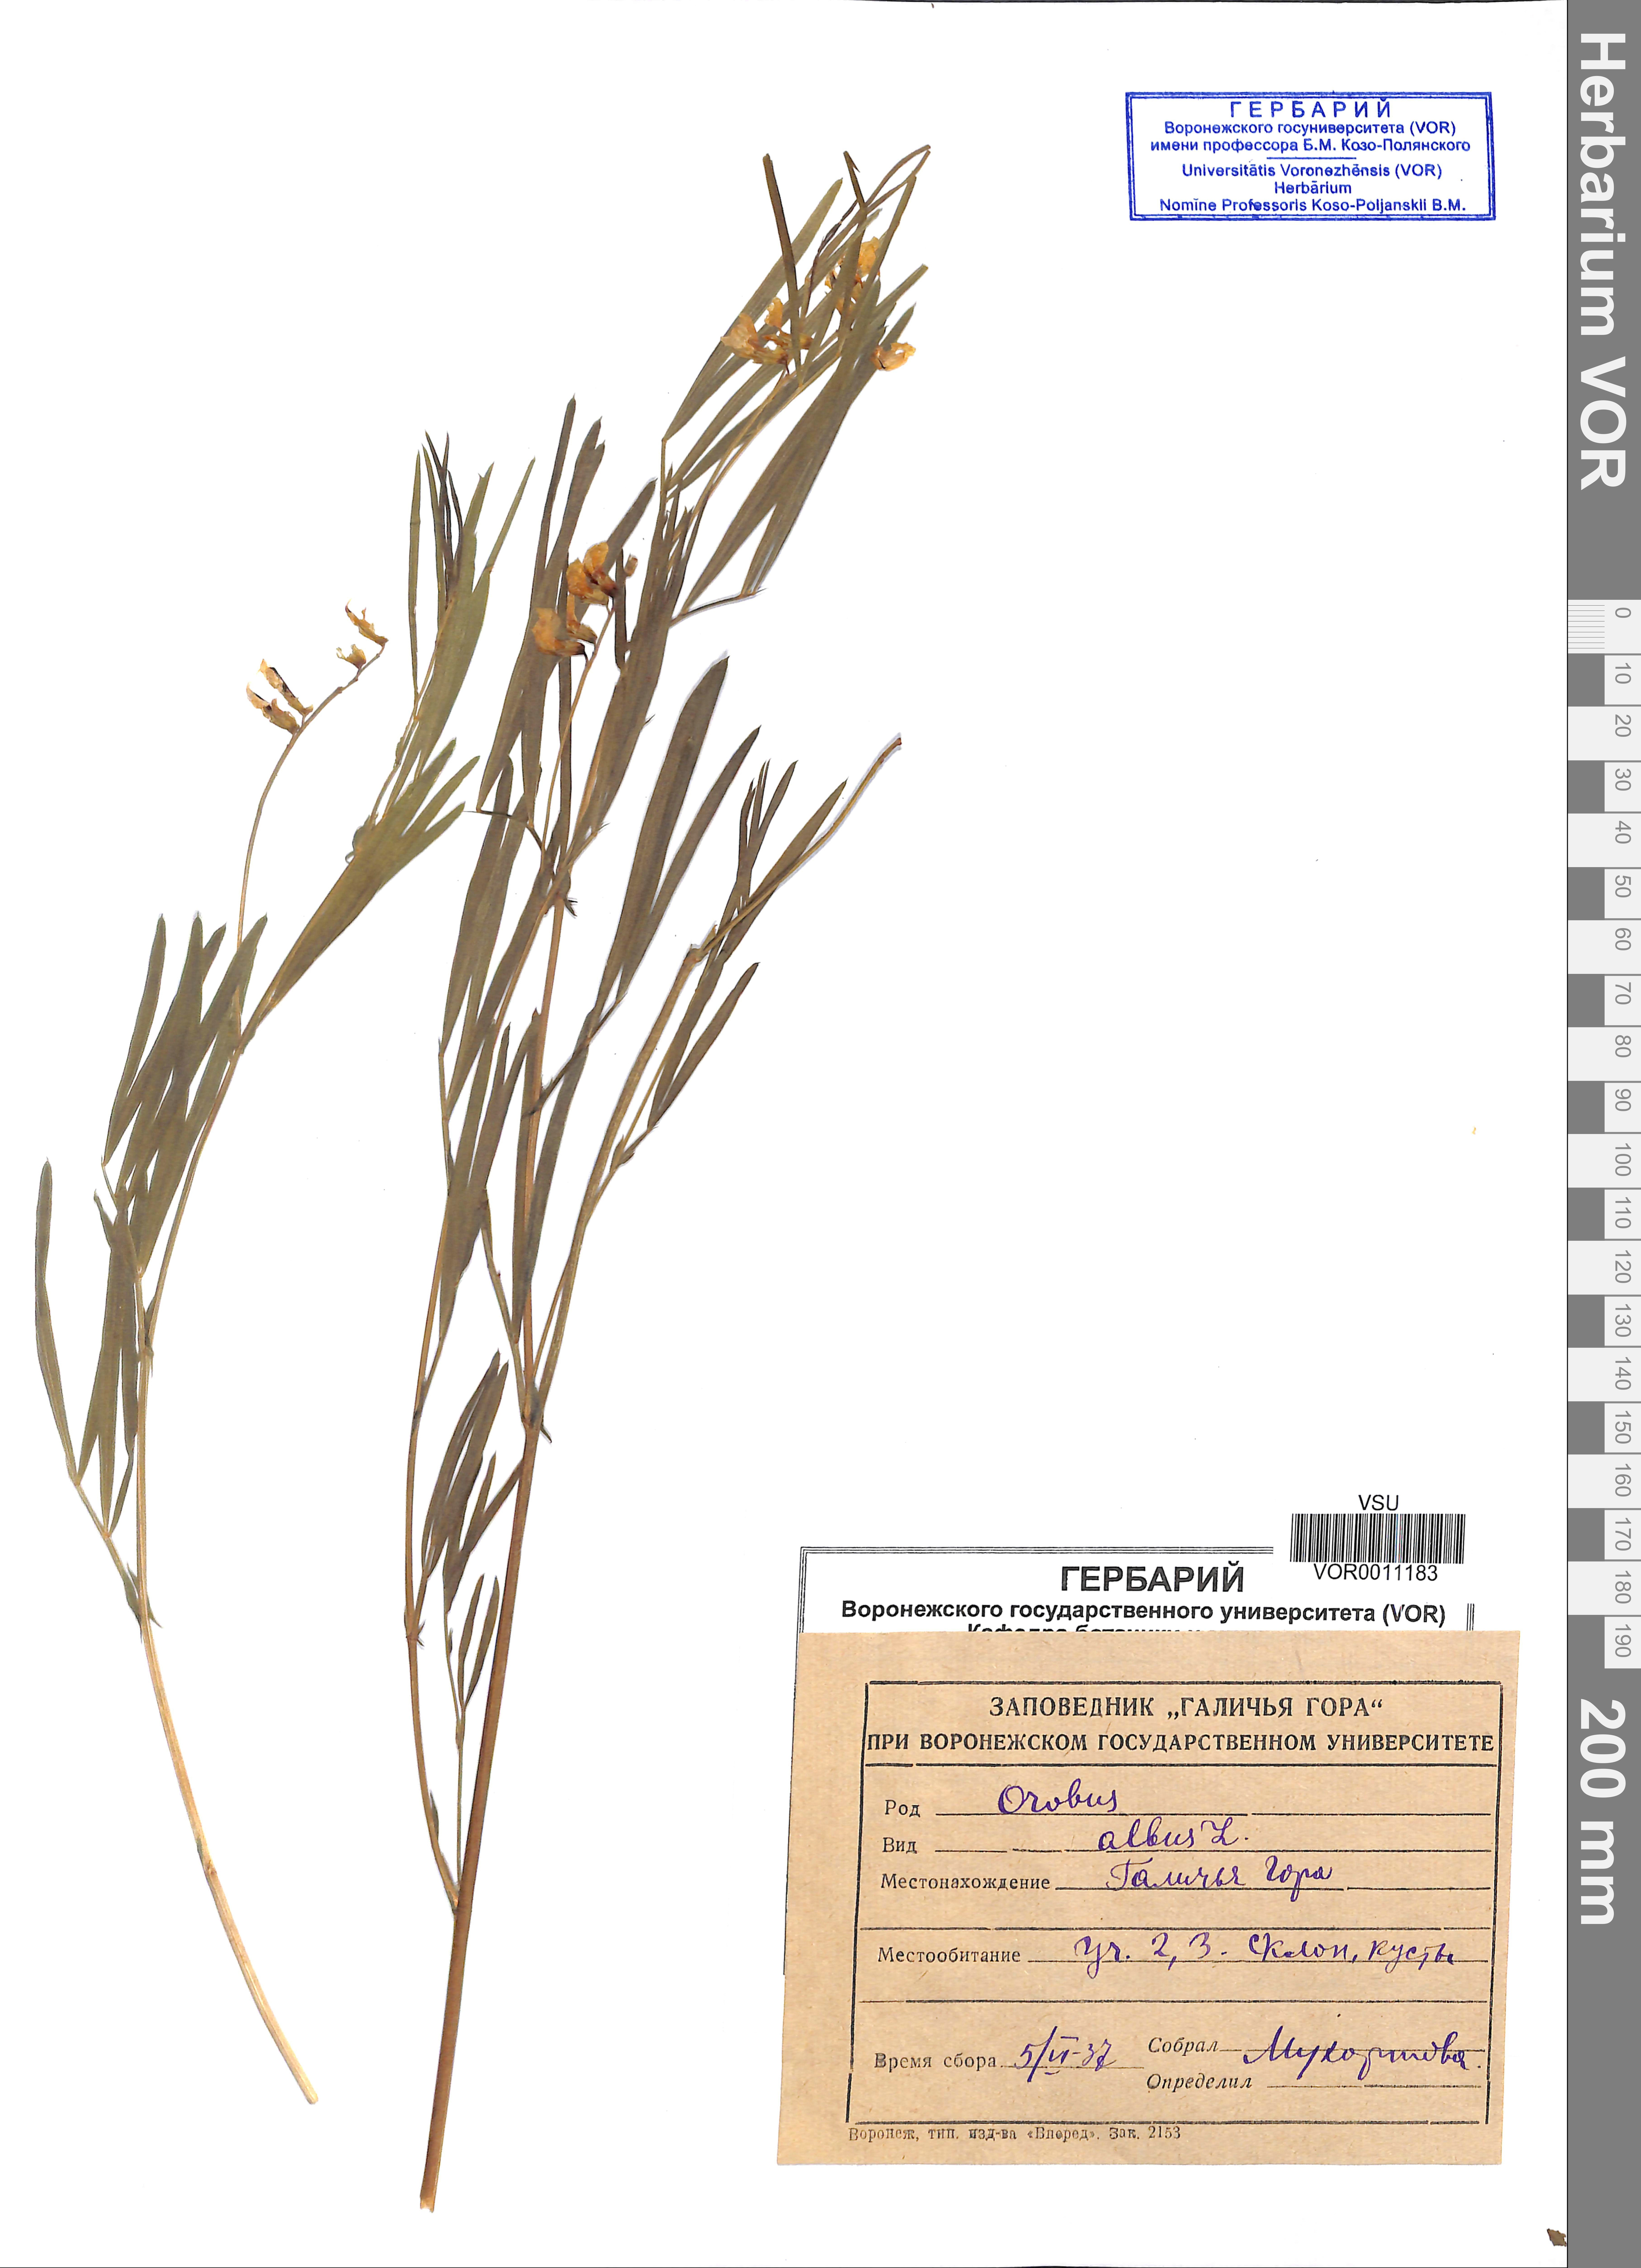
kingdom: Plantae
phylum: Tracheophyta
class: Magnoliopsida
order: Fabales
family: Fabaceae
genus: Lathyrus
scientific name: Lathyrus pannonicus
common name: Pea
